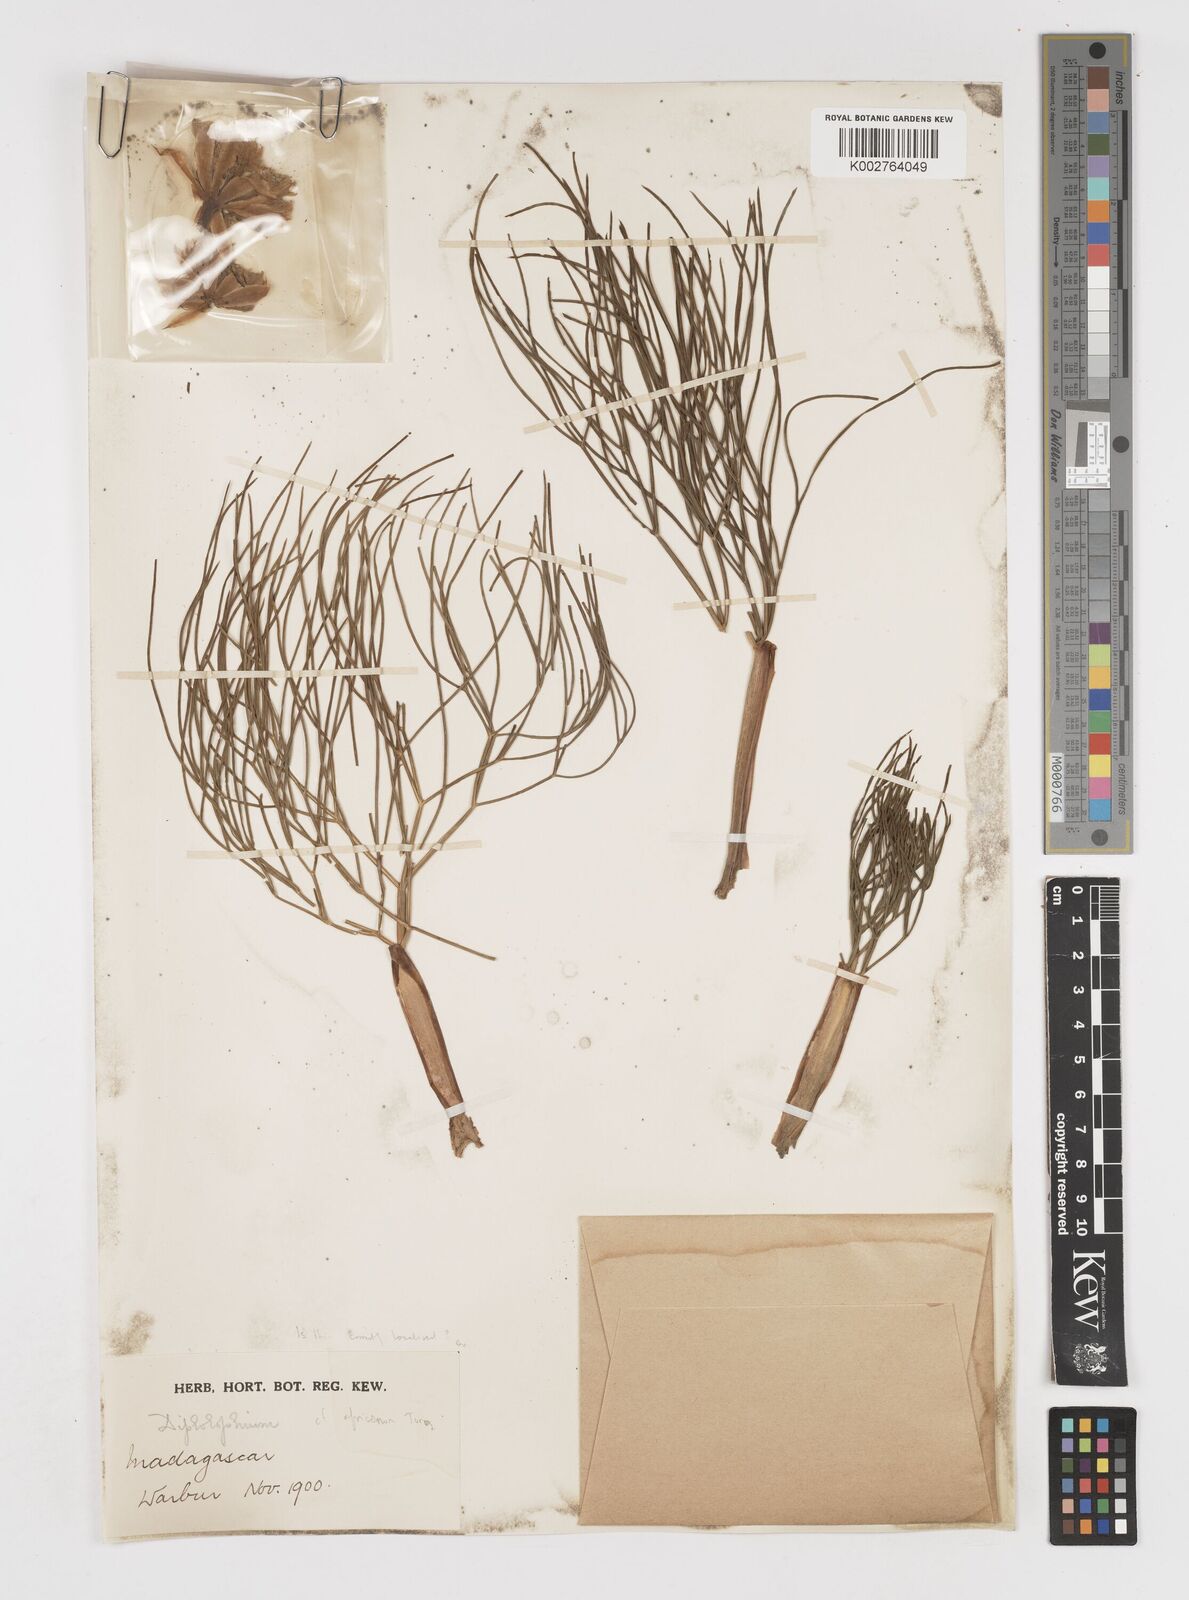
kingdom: Plantae
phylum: Tracheophyta
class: Magnoliopsida
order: Apiales
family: Apiaceae
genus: Diplolophium
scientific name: Diplolophium
